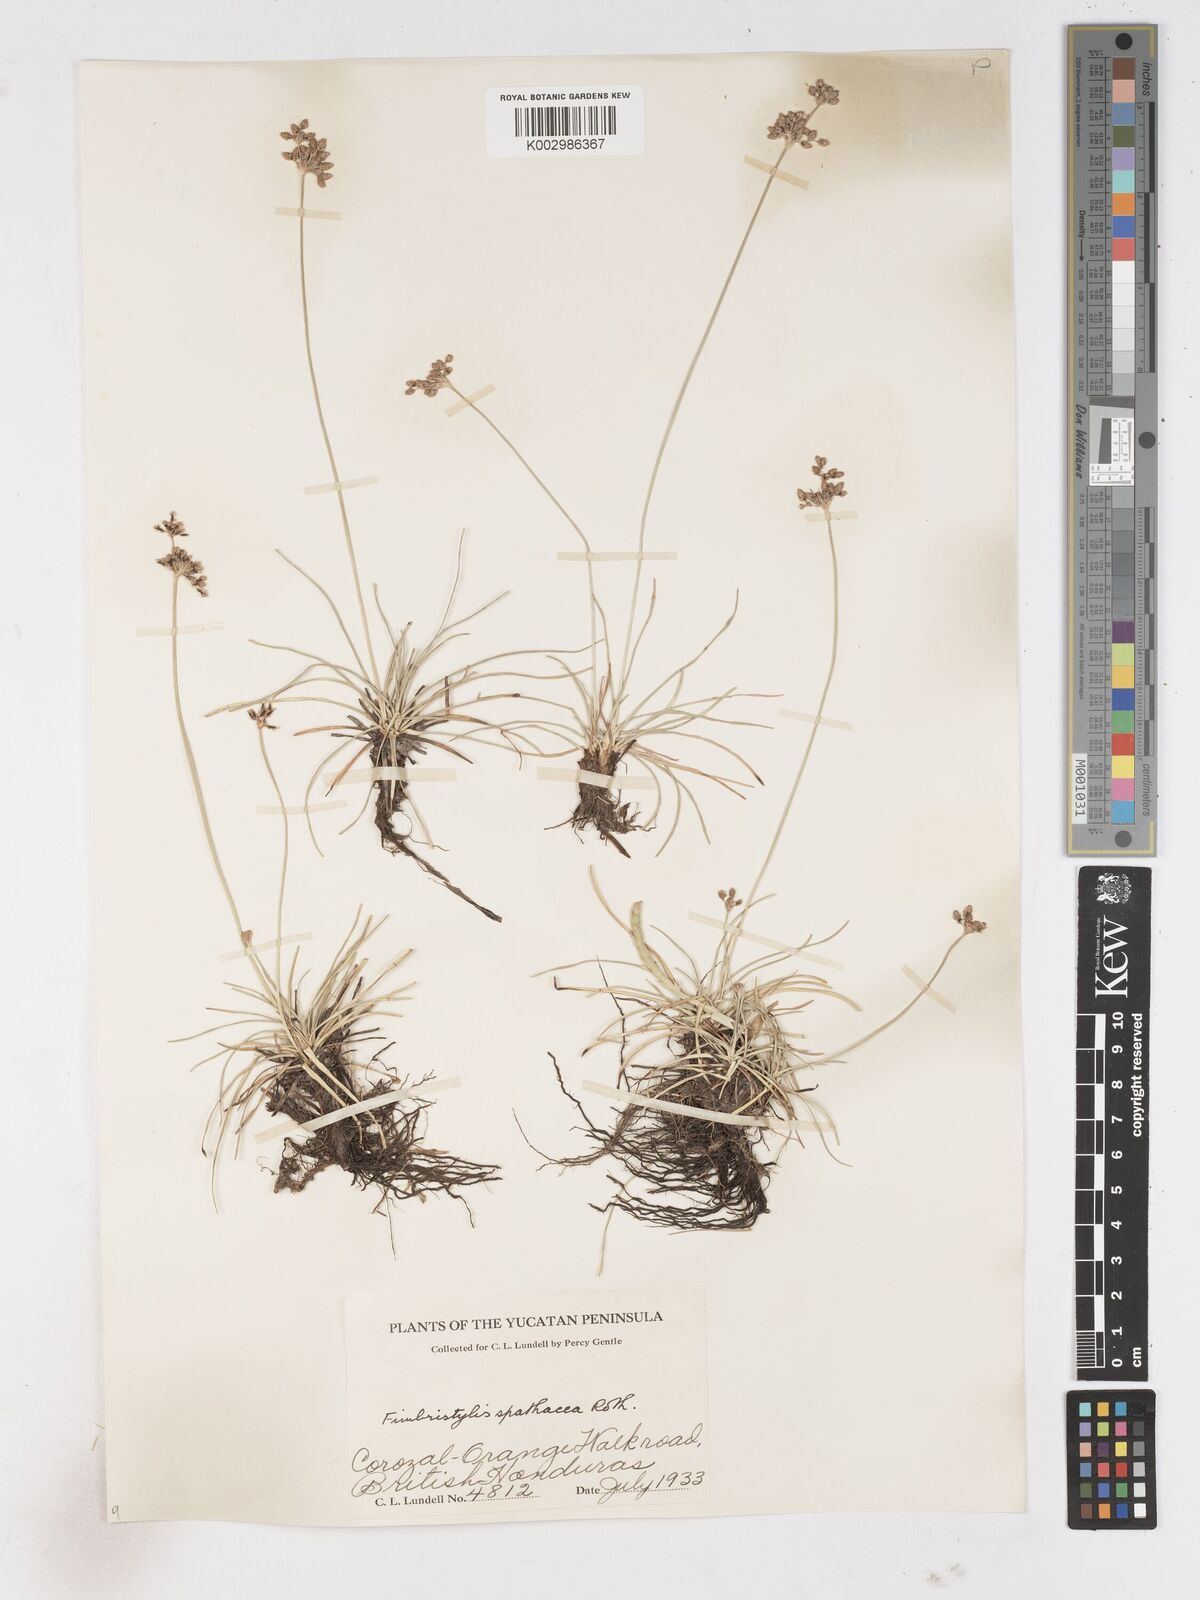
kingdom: Plantae
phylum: Tracheophyta
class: Liliopsida
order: Poales
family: Cyperaceae
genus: Fimbristylis
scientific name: Fimbristylis cymosa
